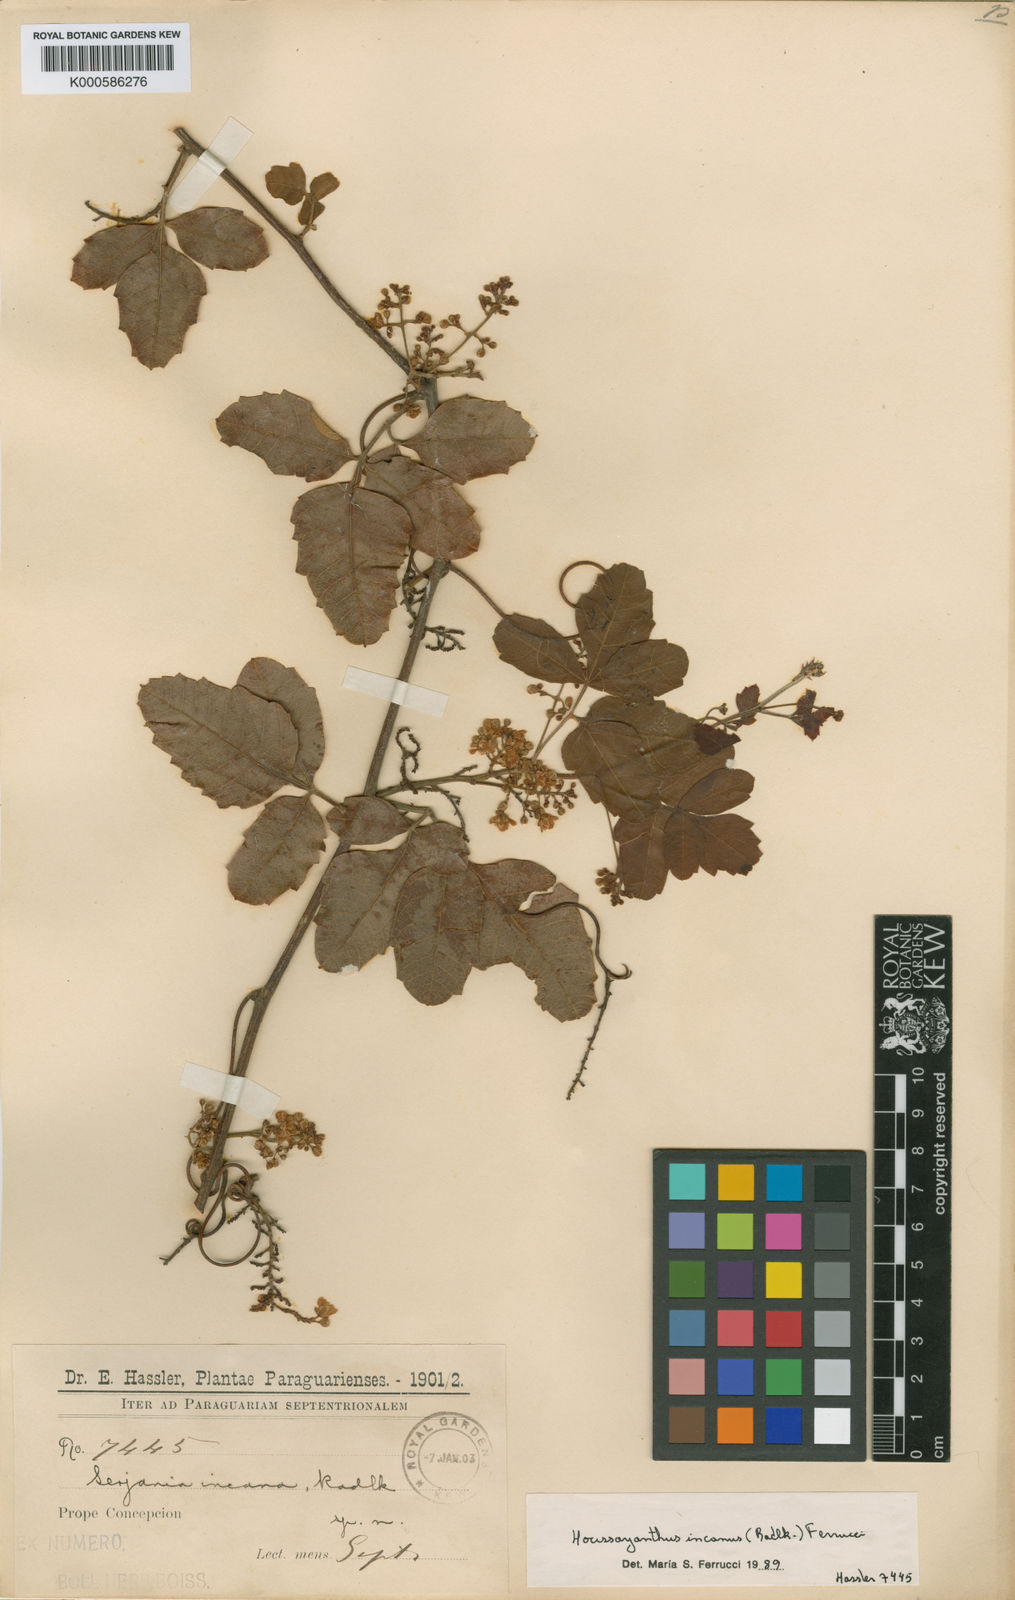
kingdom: Plantae
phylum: Tracheophyta
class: Magnoliopsida
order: Sapindales
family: Sapindaceae
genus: Serjania
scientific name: Serjania incana
